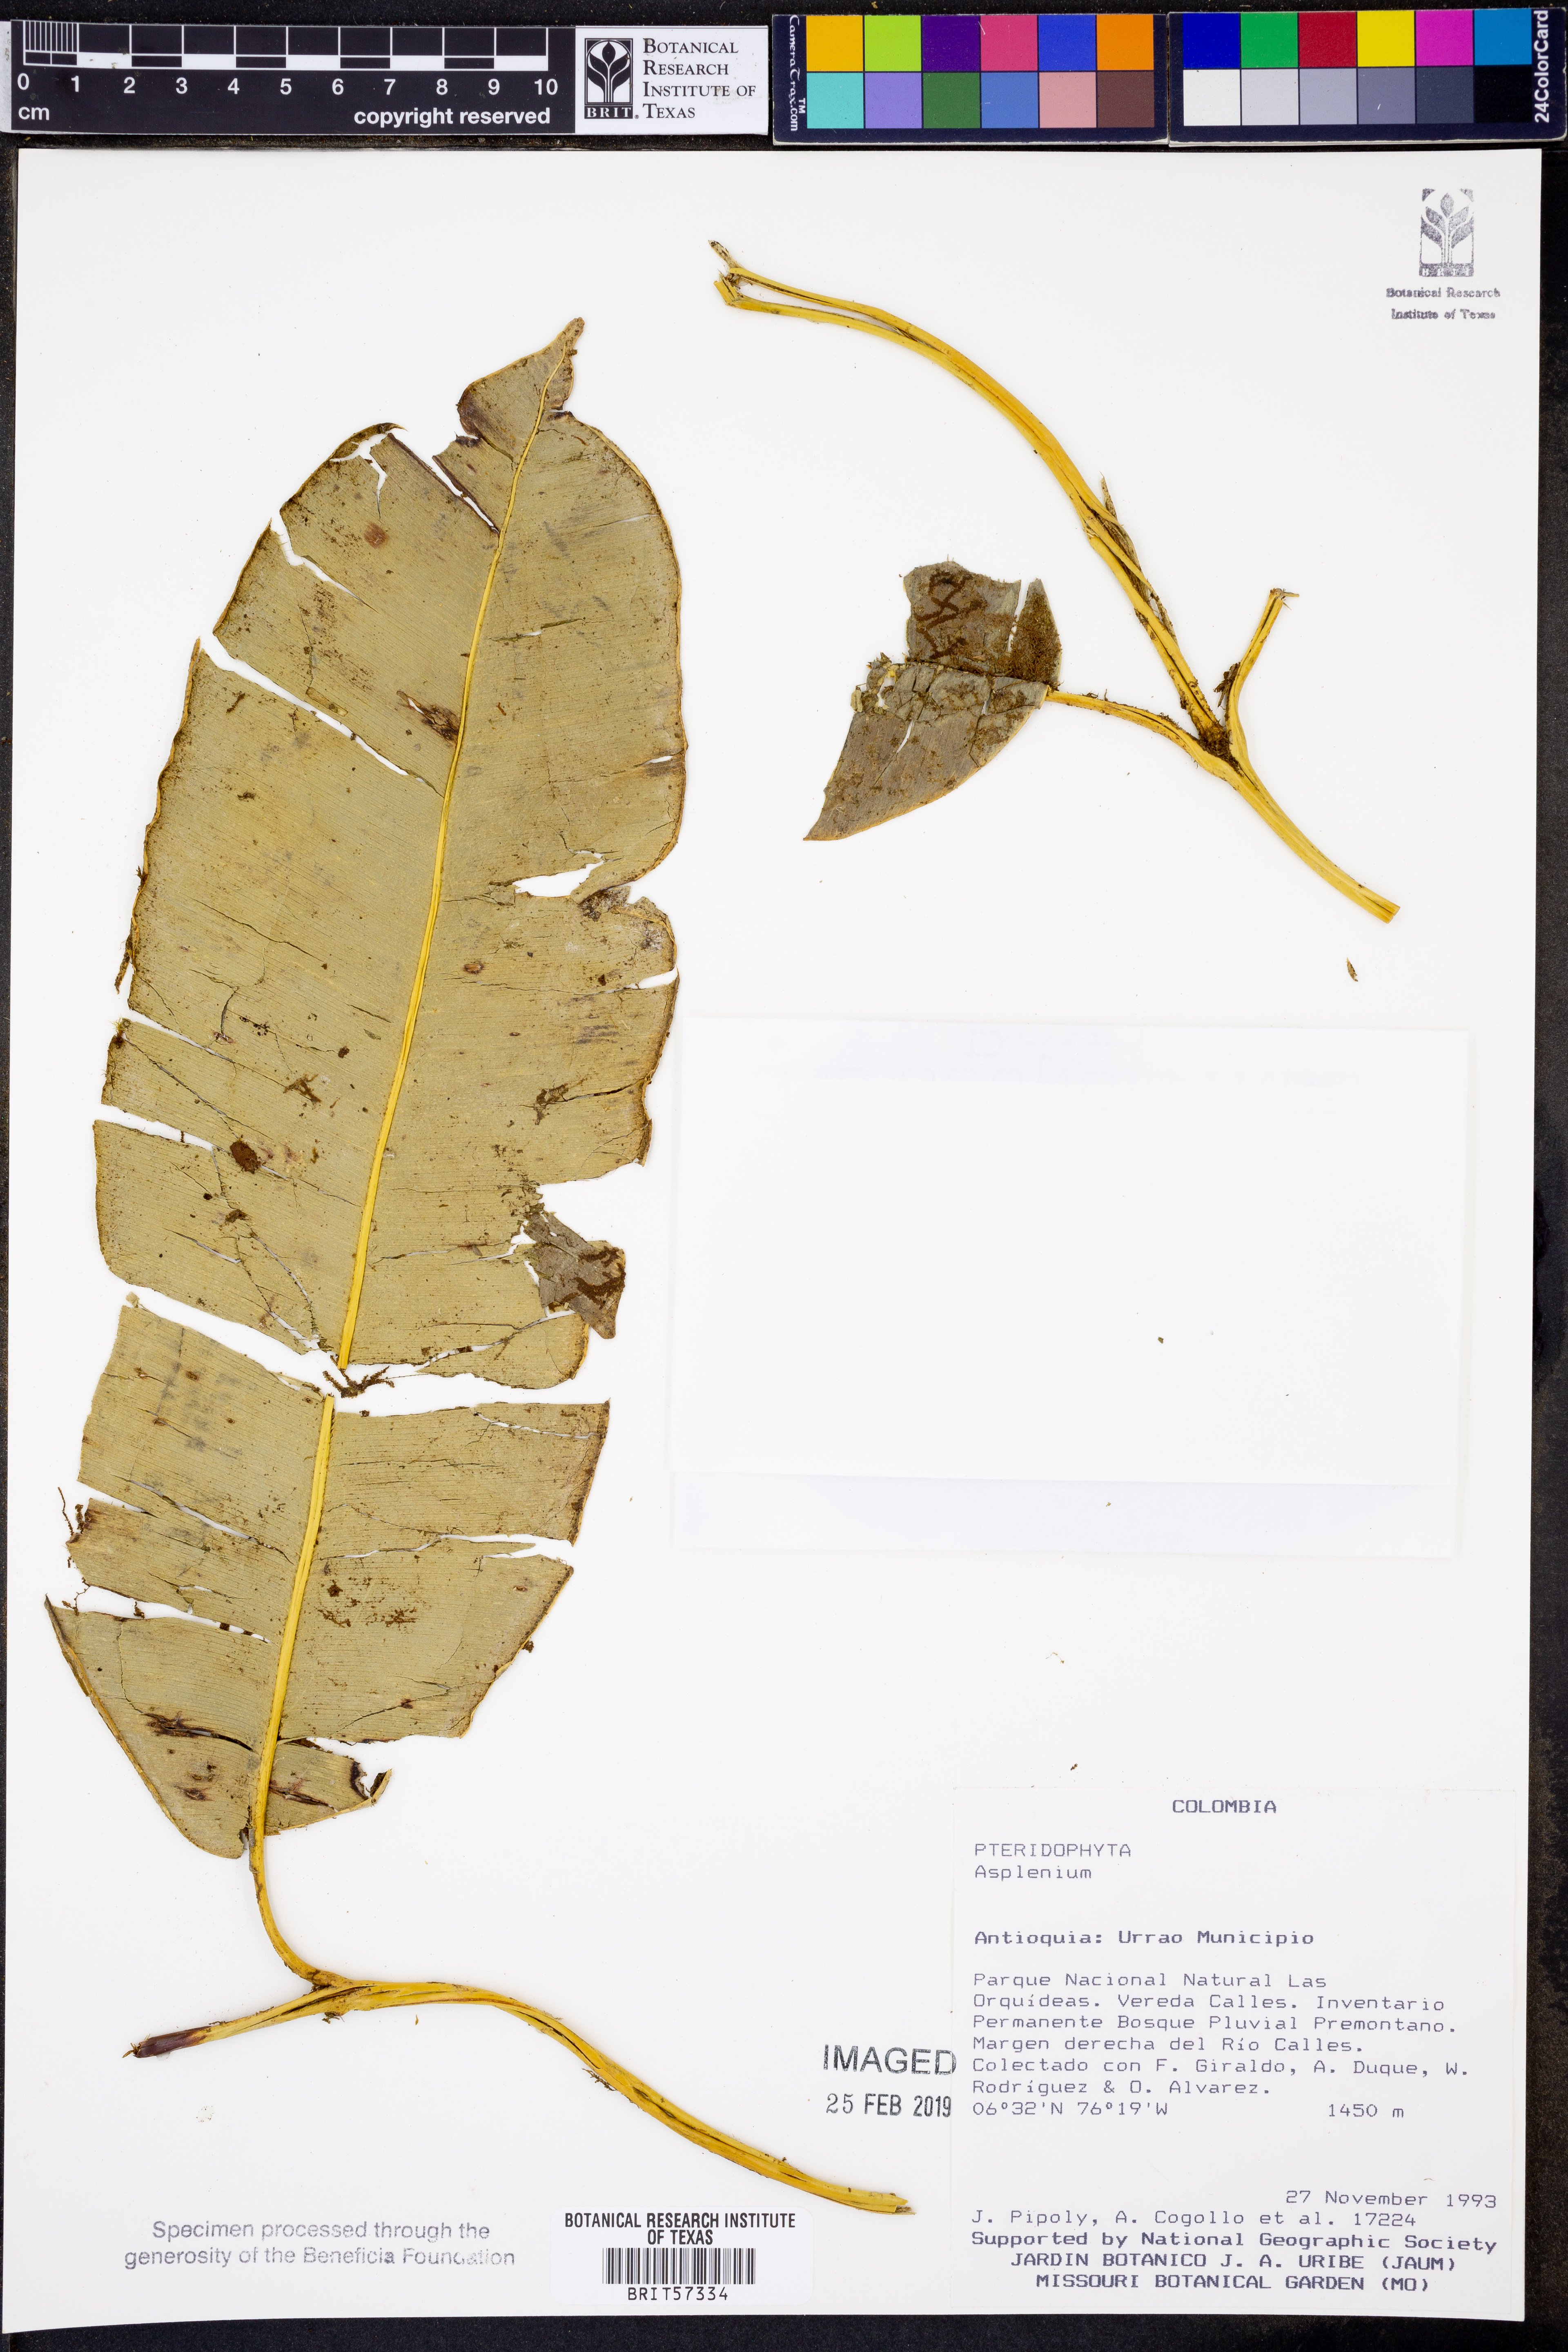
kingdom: Plantae
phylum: Tracheophyta
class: Polypodiopsida
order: Polypodiales
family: Aspleniaceae
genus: Asplenium
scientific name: Asplenium
